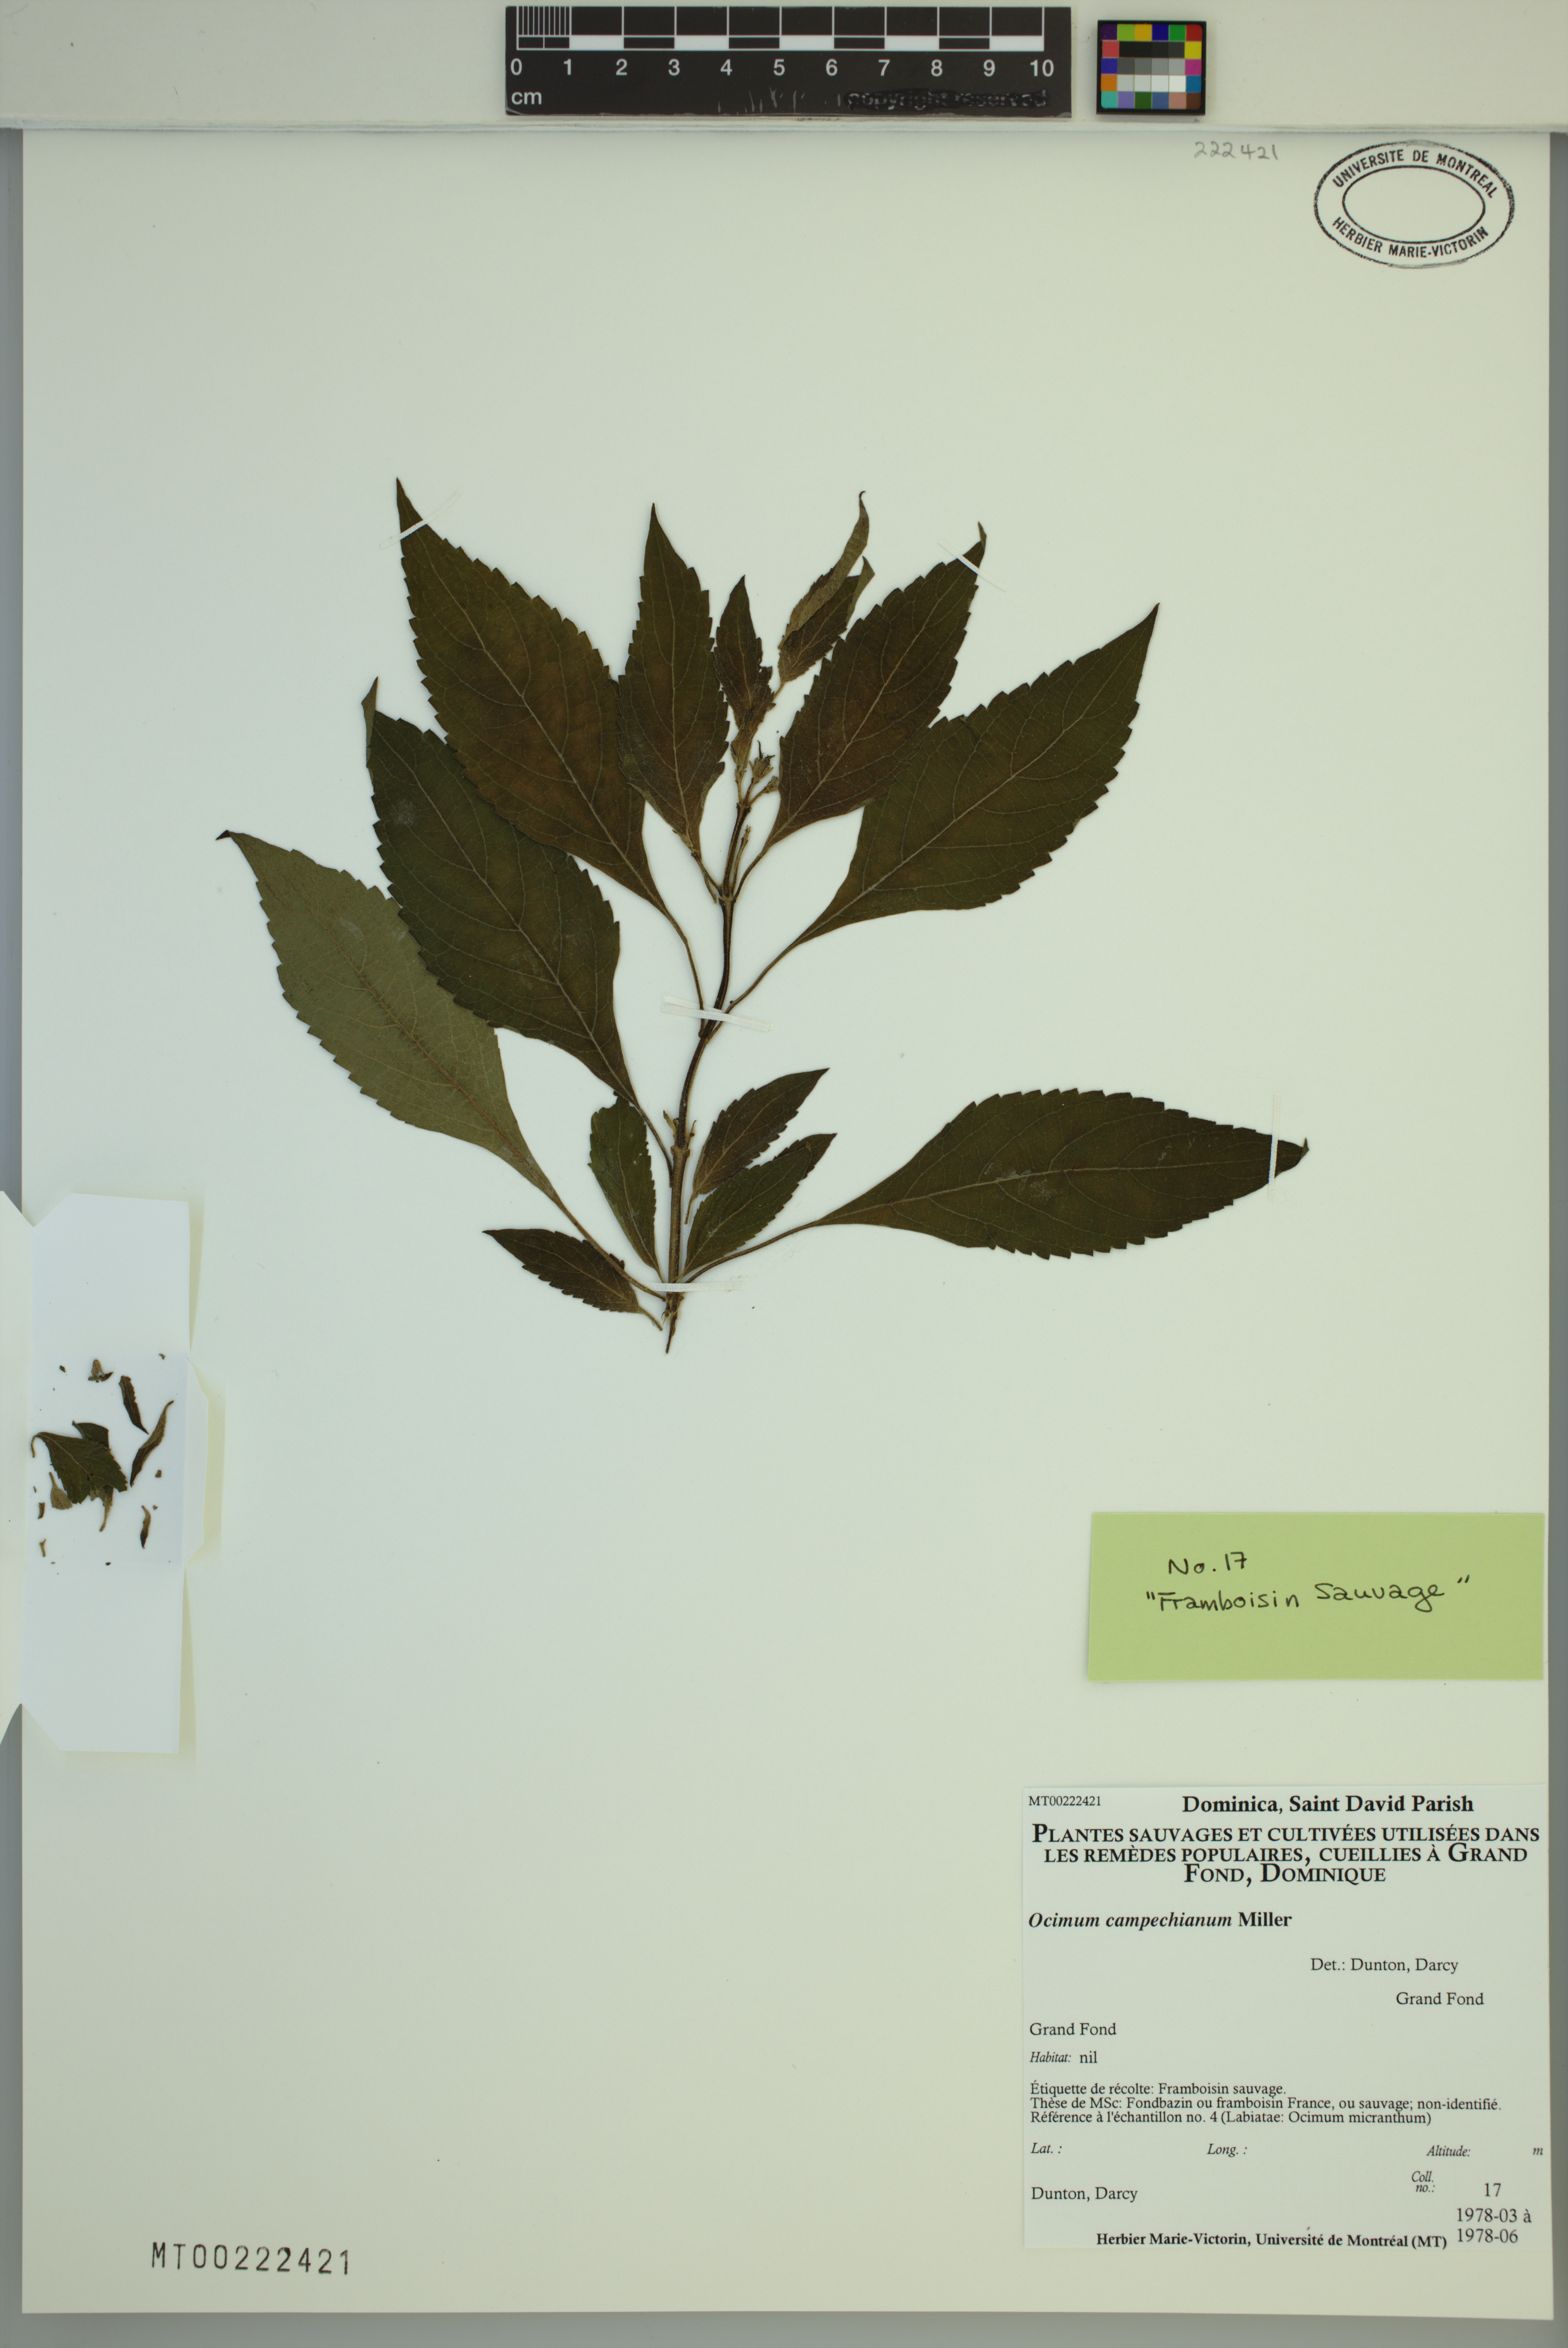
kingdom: Plantae
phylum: Tracheophyta
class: Magnoliopsida
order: Lamiales
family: Lamiaceae
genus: Ocimum
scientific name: Ocimum campechianum
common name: Mosquito basil
